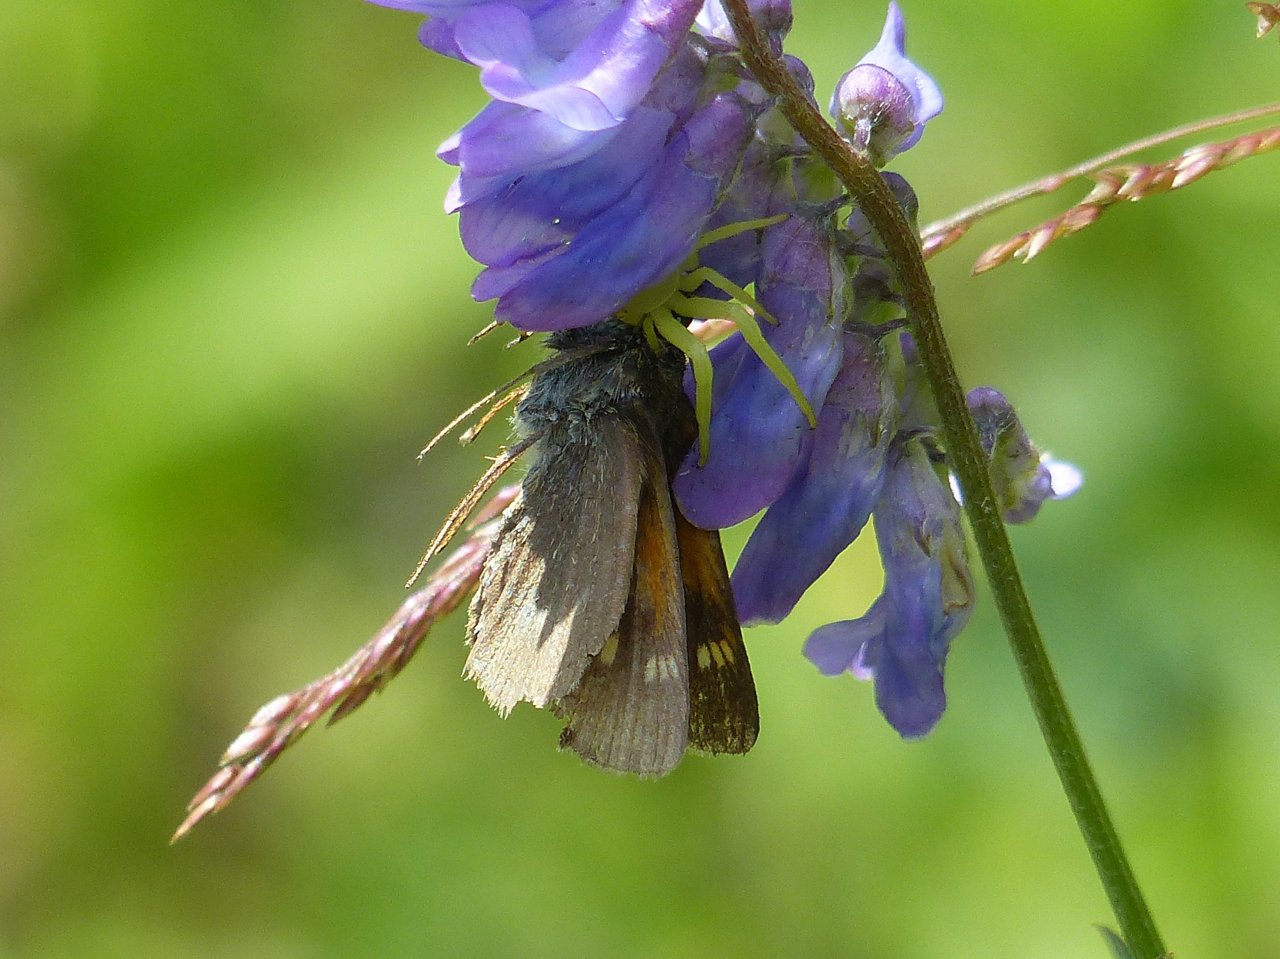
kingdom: Animalia
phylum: Arthropoda
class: Insecta
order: Lepidoptera
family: Hesperiidae
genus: Polites
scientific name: Polites themistocles
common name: Tawny-edged Skipper
